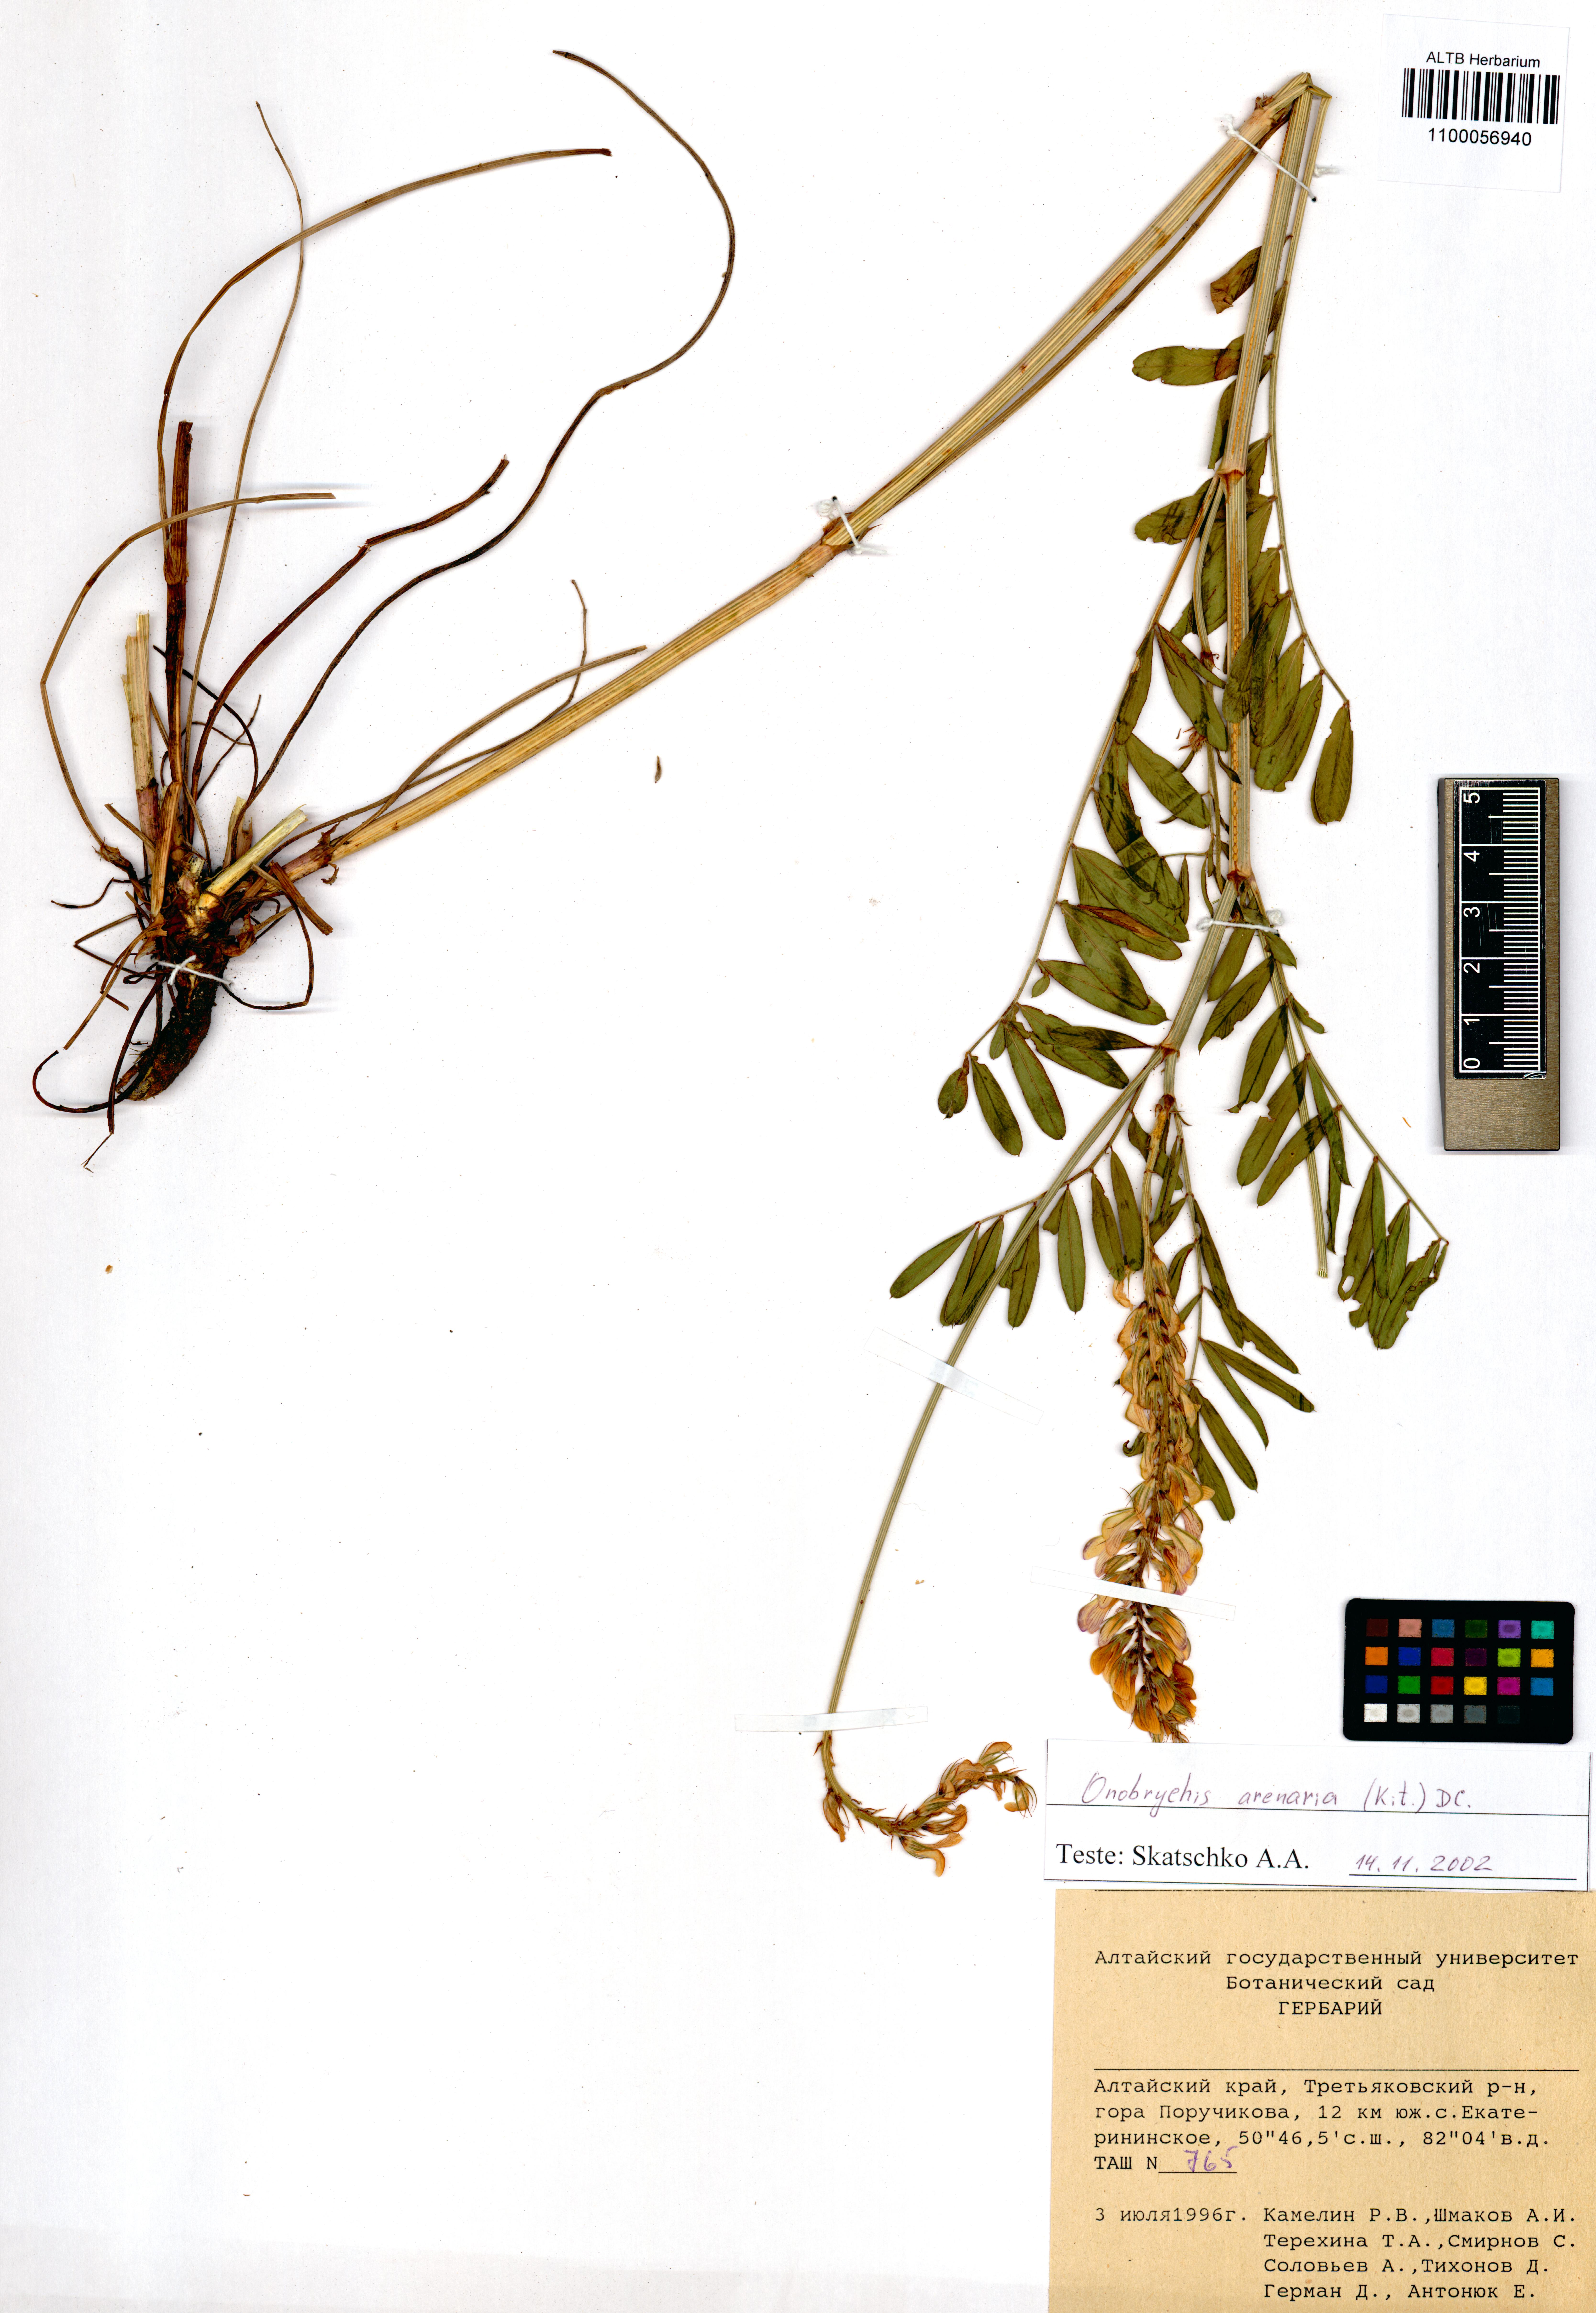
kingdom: Plantae
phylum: Tracheophyta
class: Magnoliopsida
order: Fabales
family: Fabaceae
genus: Onobrychis
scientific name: Onobrychis arenaria
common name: Sand esparcet
